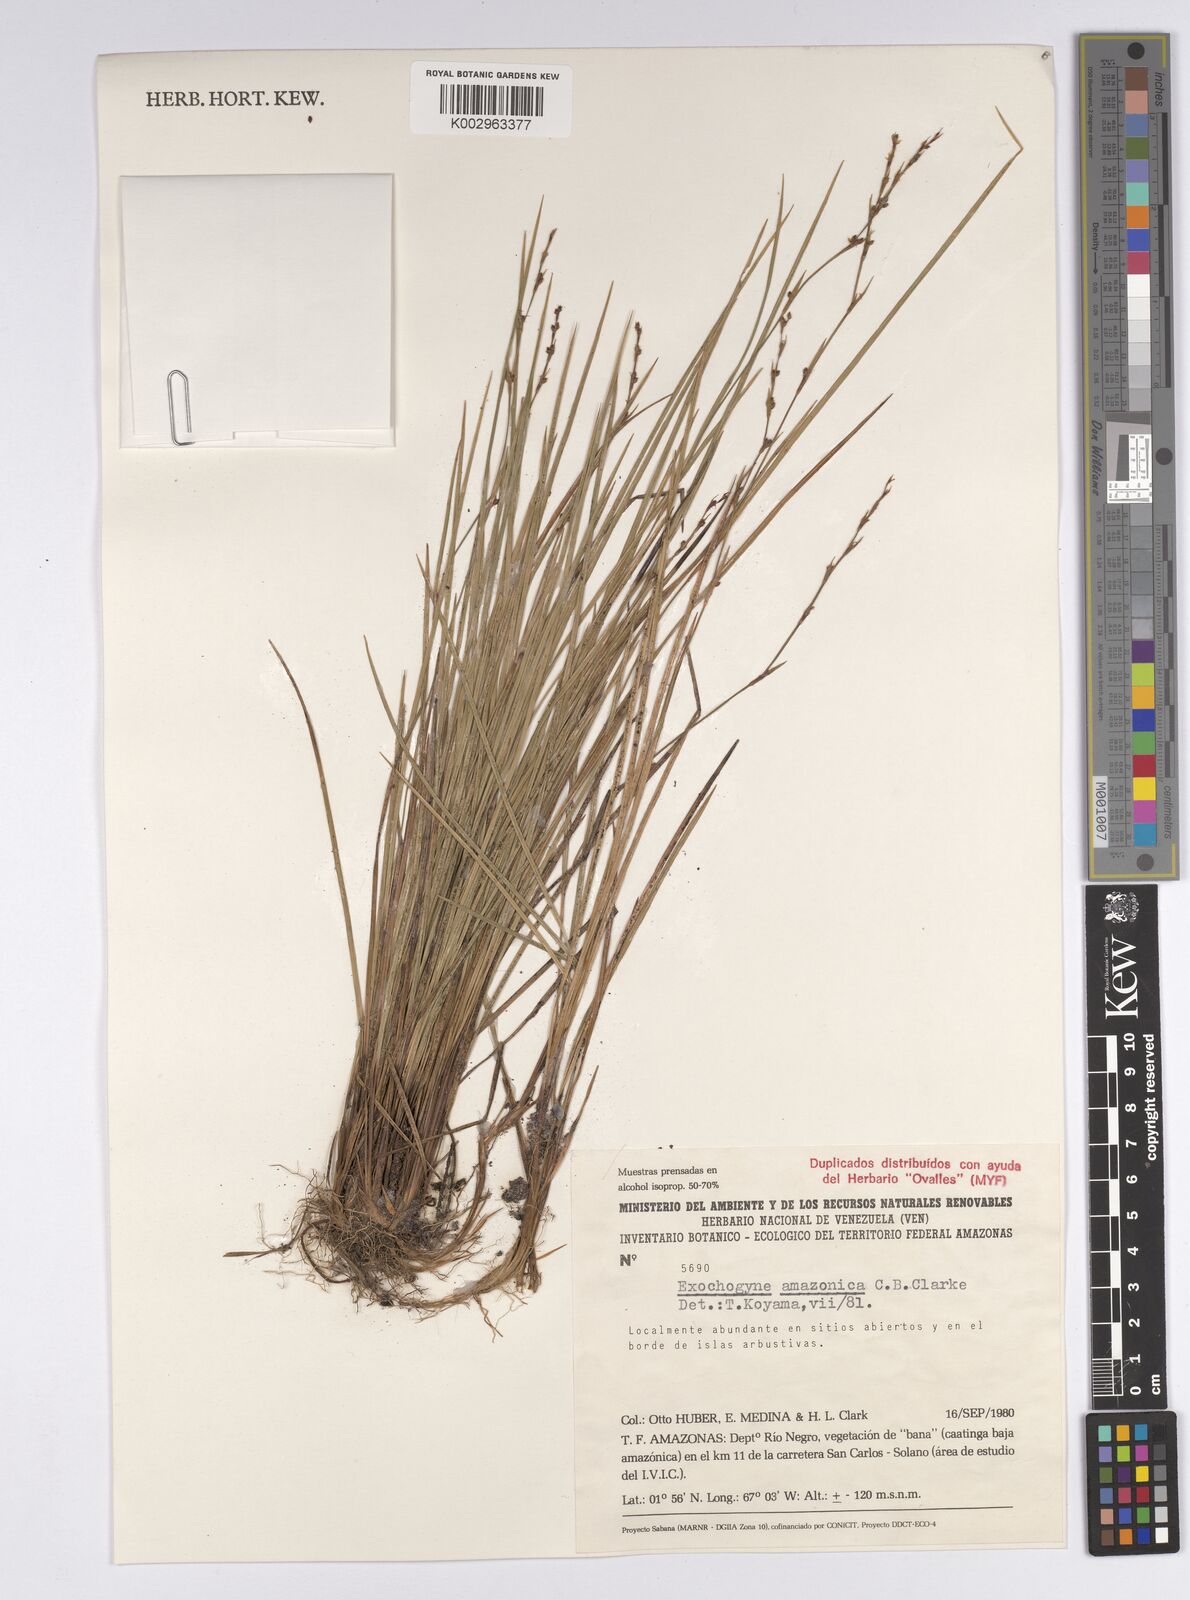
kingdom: Plantae
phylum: Tracheophyta
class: Liliopsida
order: Poales
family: Cyperaceae
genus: Exochogyne
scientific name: Exochogyne amazonica
